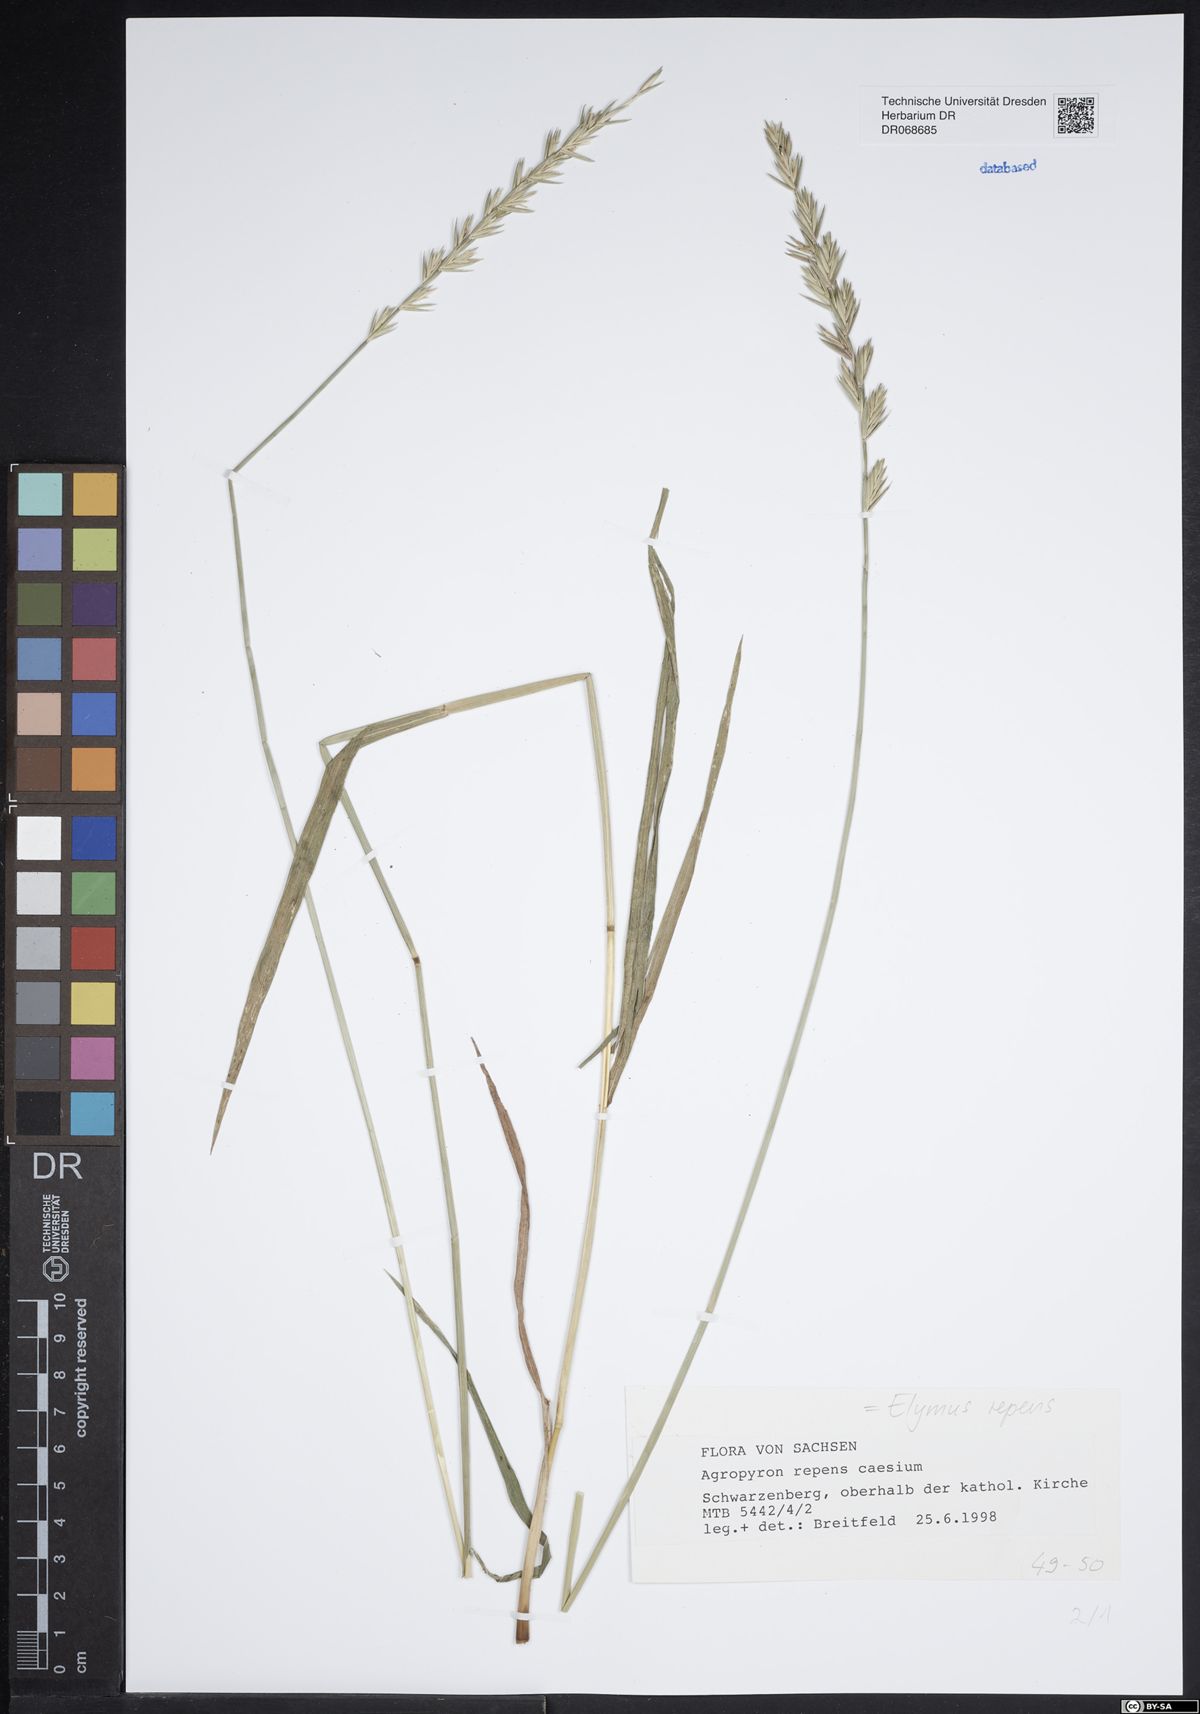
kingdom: Plantae
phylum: Tracheophyta
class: Liliopsida
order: Poales
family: Poaceae
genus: Elymus
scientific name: Elymus repens
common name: Quackgrass
